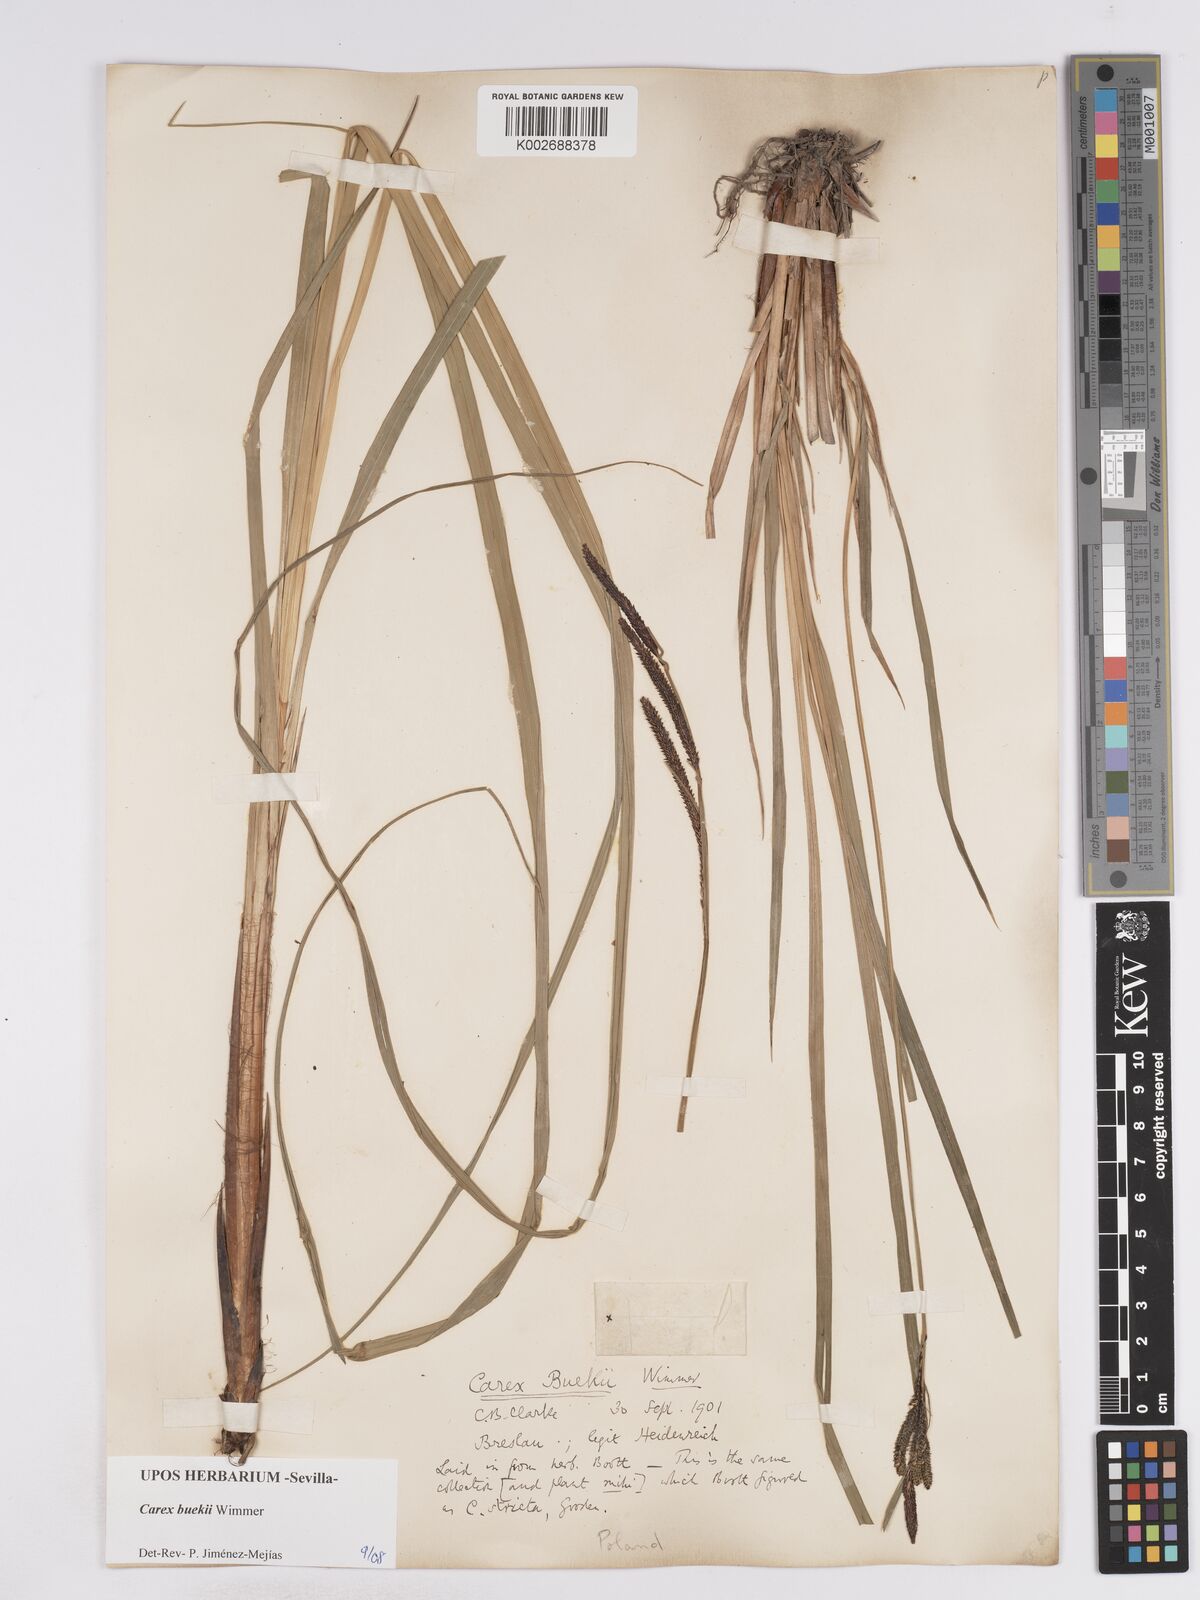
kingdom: Plantae
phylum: Tracheophyta
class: Liliopsida
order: Poales
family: Cyperaceae
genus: Carex
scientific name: Carex buekii
